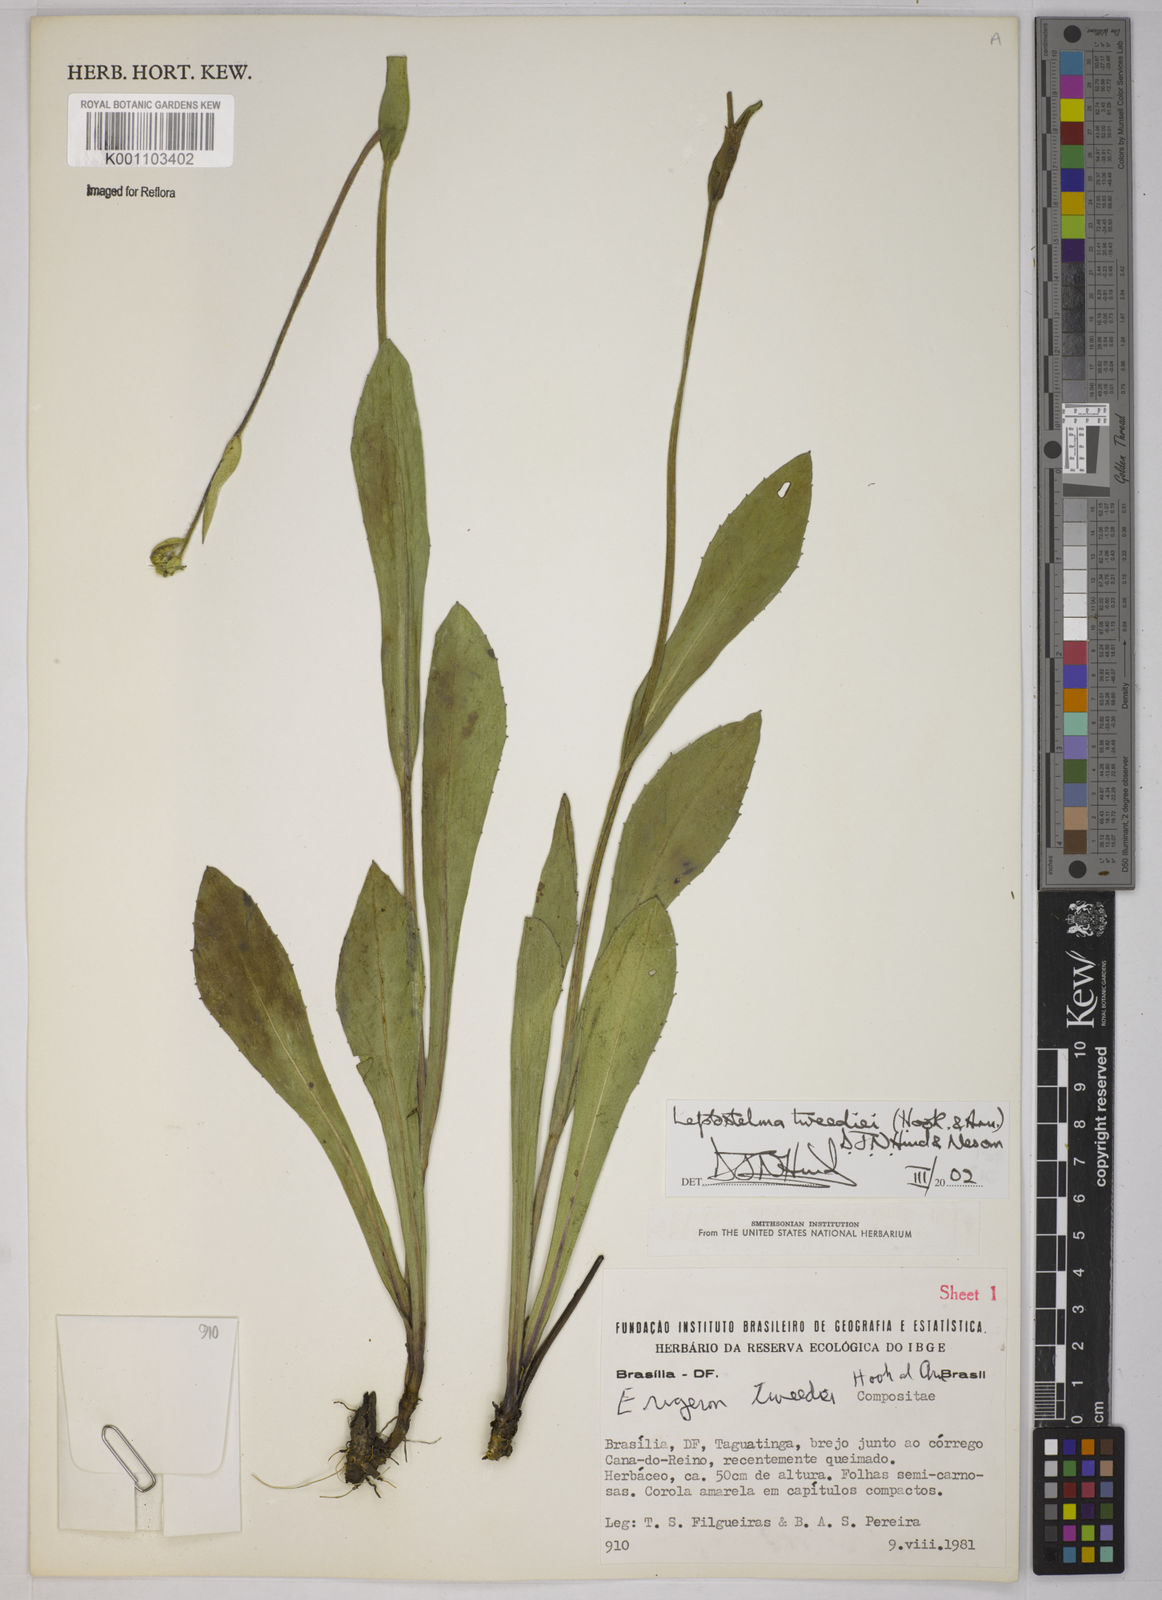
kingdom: Plantae
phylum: Tracheophyta
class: Magnoliopsida
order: Asterales
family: Asteraceae
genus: Leptostelma
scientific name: Leptostelma tweediei
